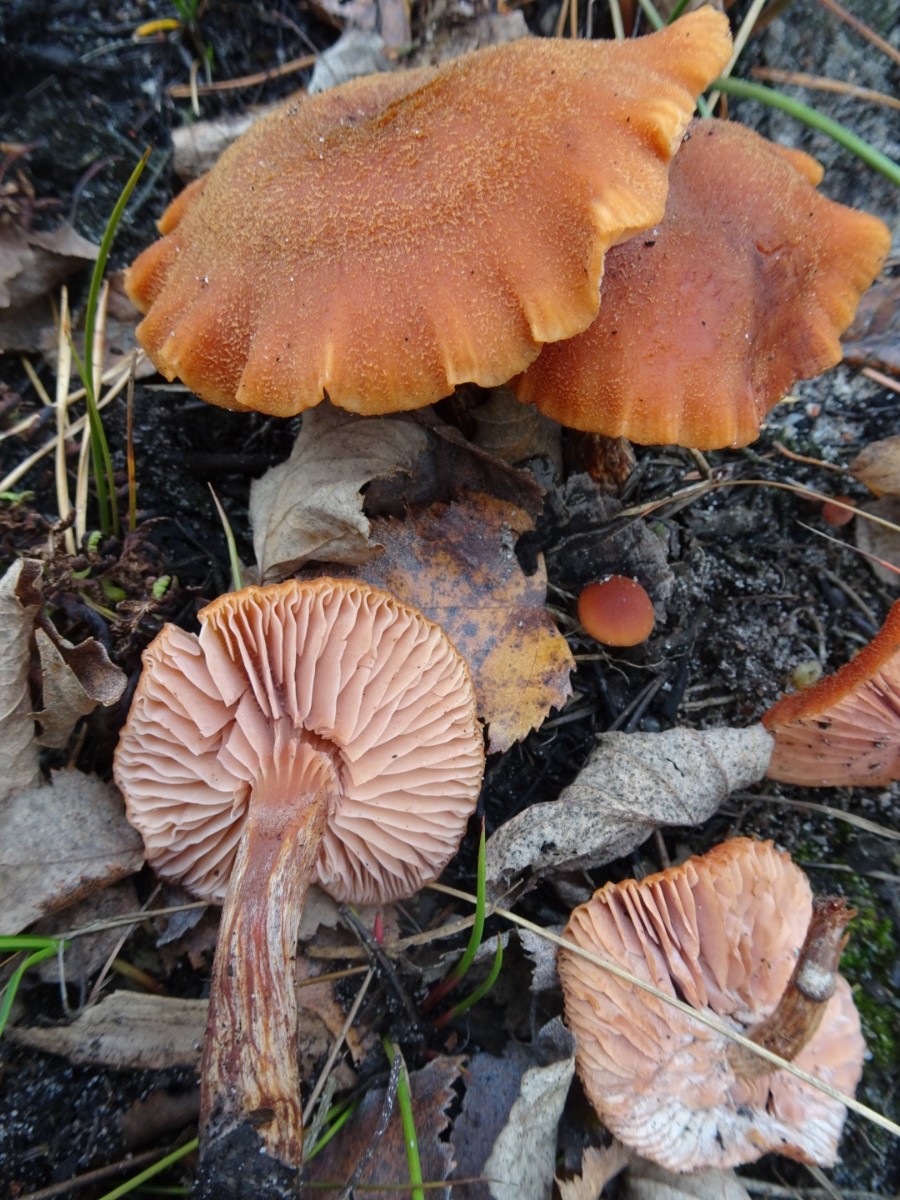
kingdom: Fungi
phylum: Basidiomycota
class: Agaricomycetes
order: Agaricales
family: Hydnangiaceae
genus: Laccaria
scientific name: Laccaria proxima
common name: stor ametysthat
